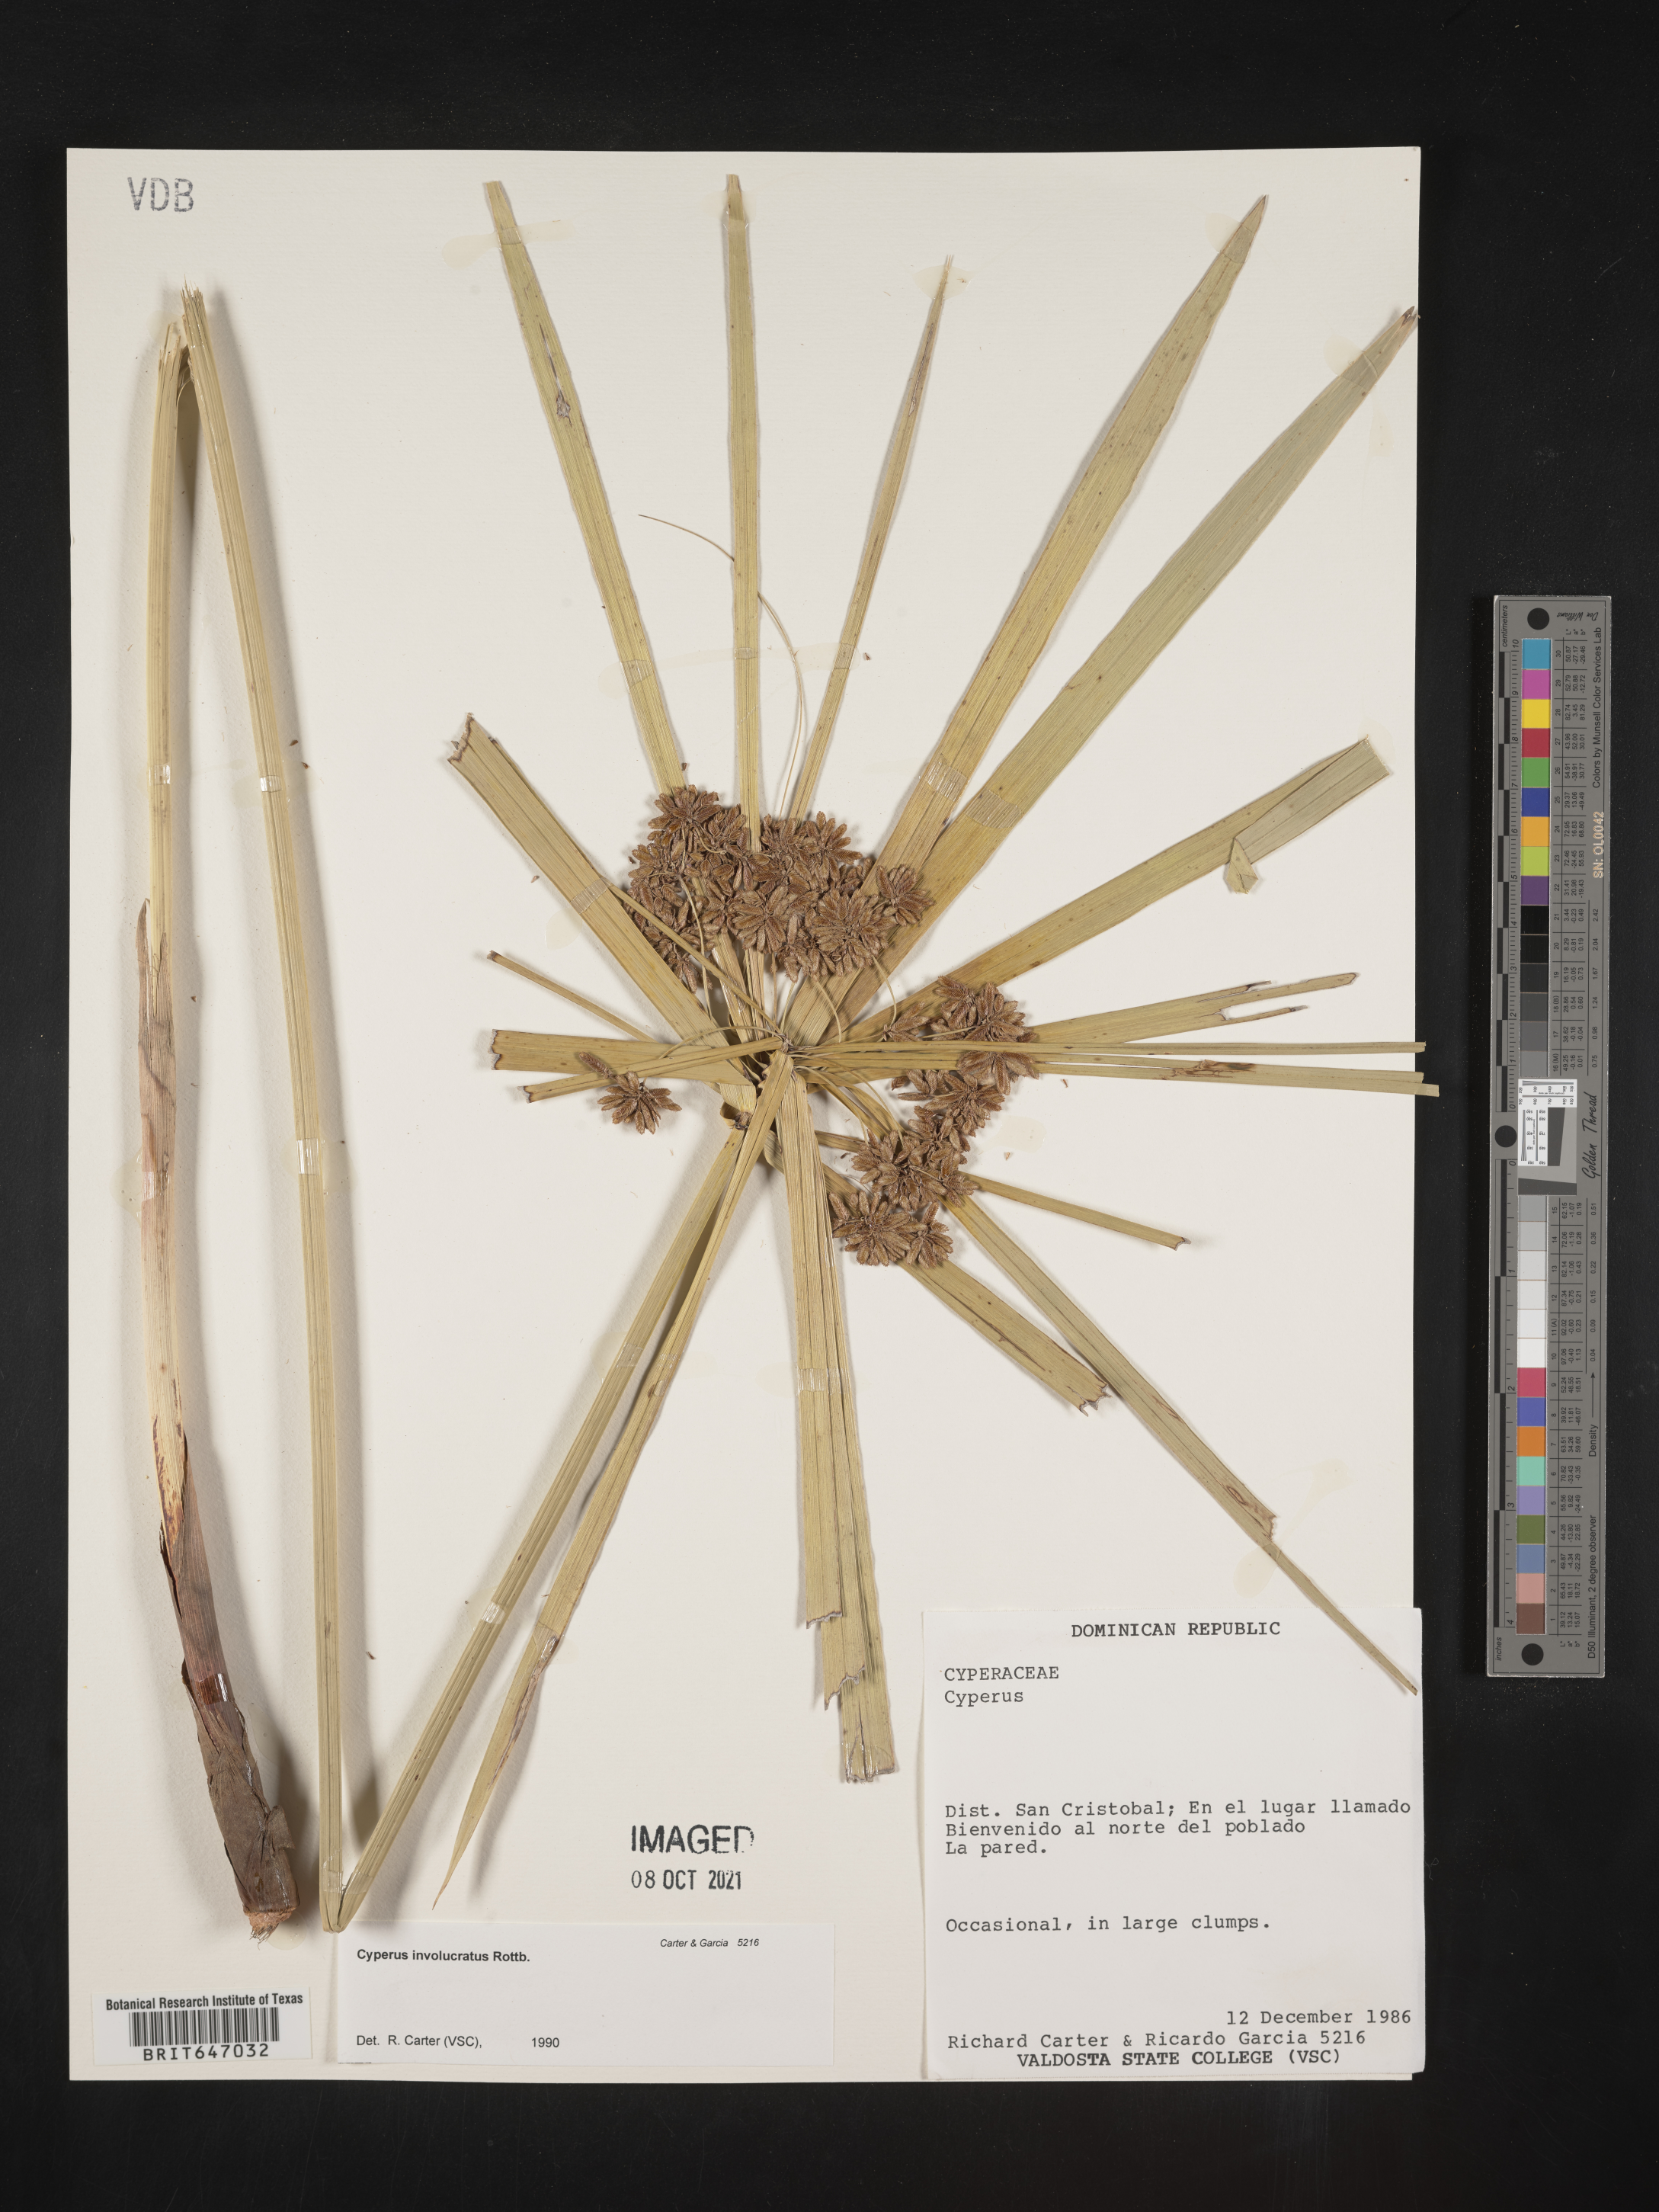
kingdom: Plantae
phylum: Tracheophyta
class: Liliopsida
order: Poales
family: Cyperaceae
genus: Cyperus
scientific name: Cyperus alternifolius
